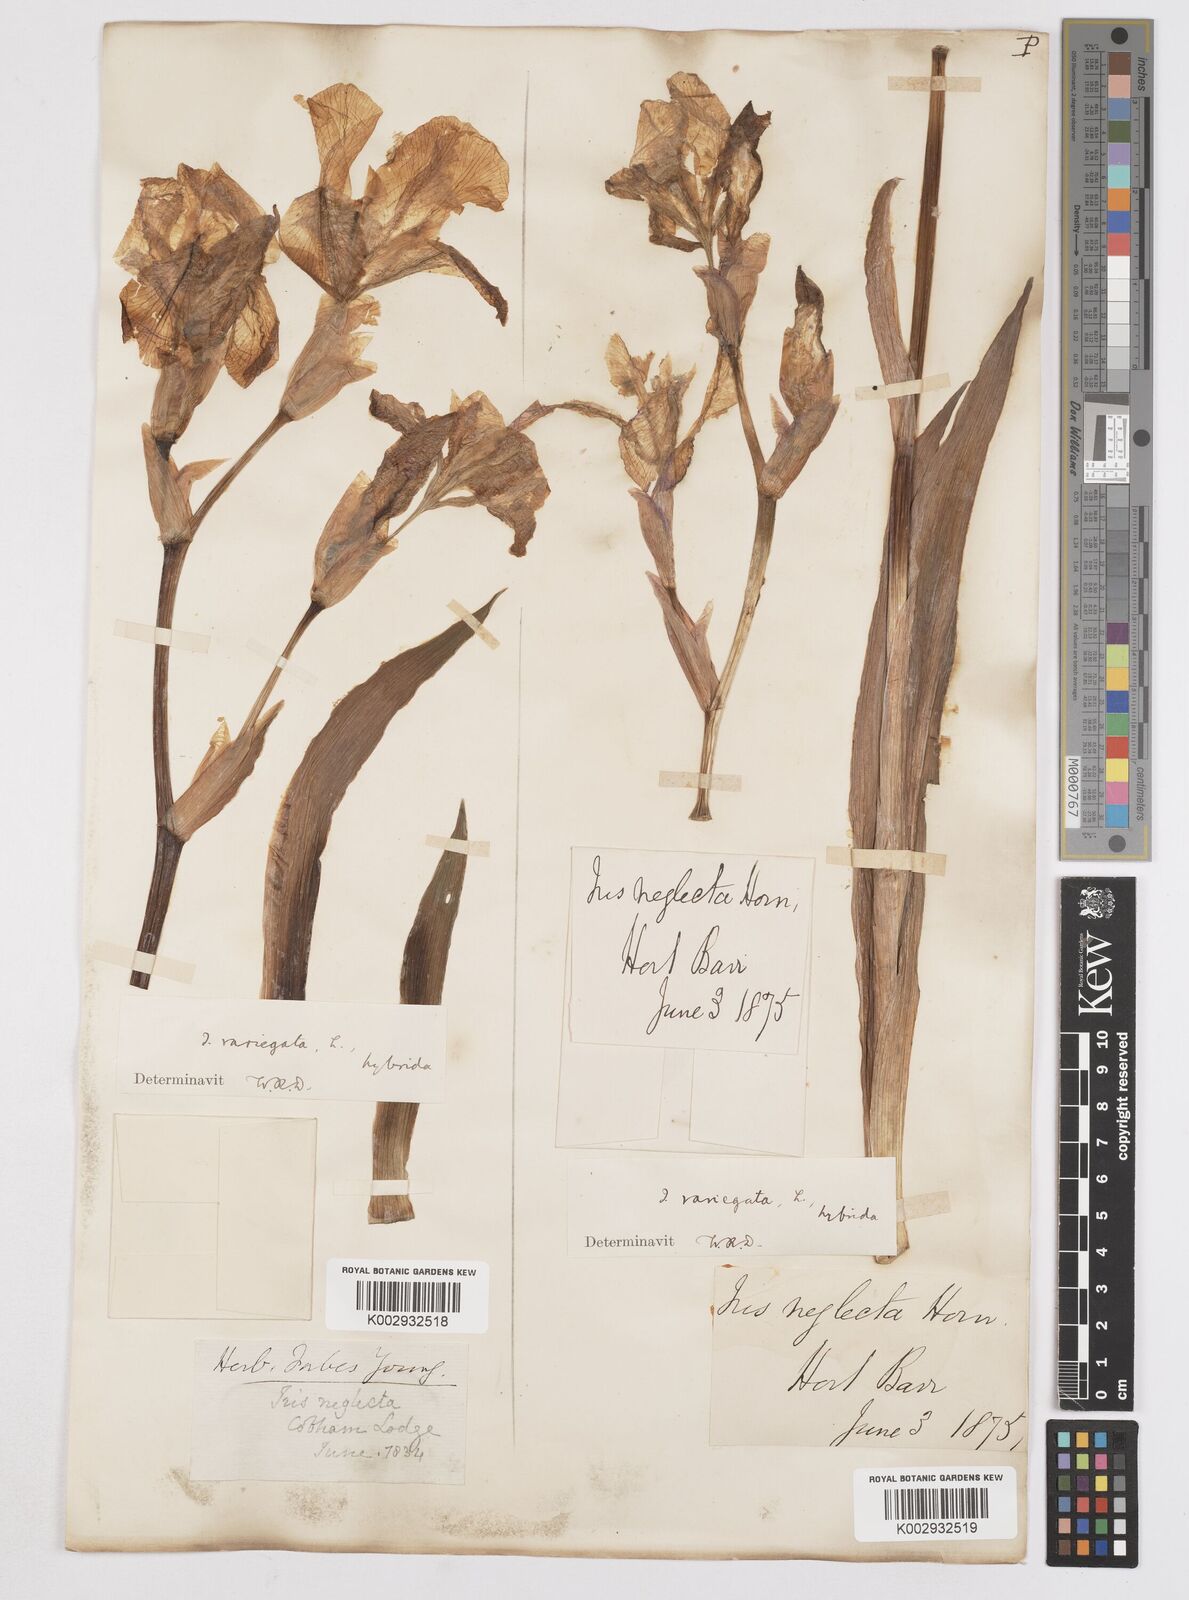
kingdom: Plantae
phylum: Tracheophyta
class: Liliopsida
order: Asparagales
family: Iridaceae
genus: Iris
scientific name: Iris
